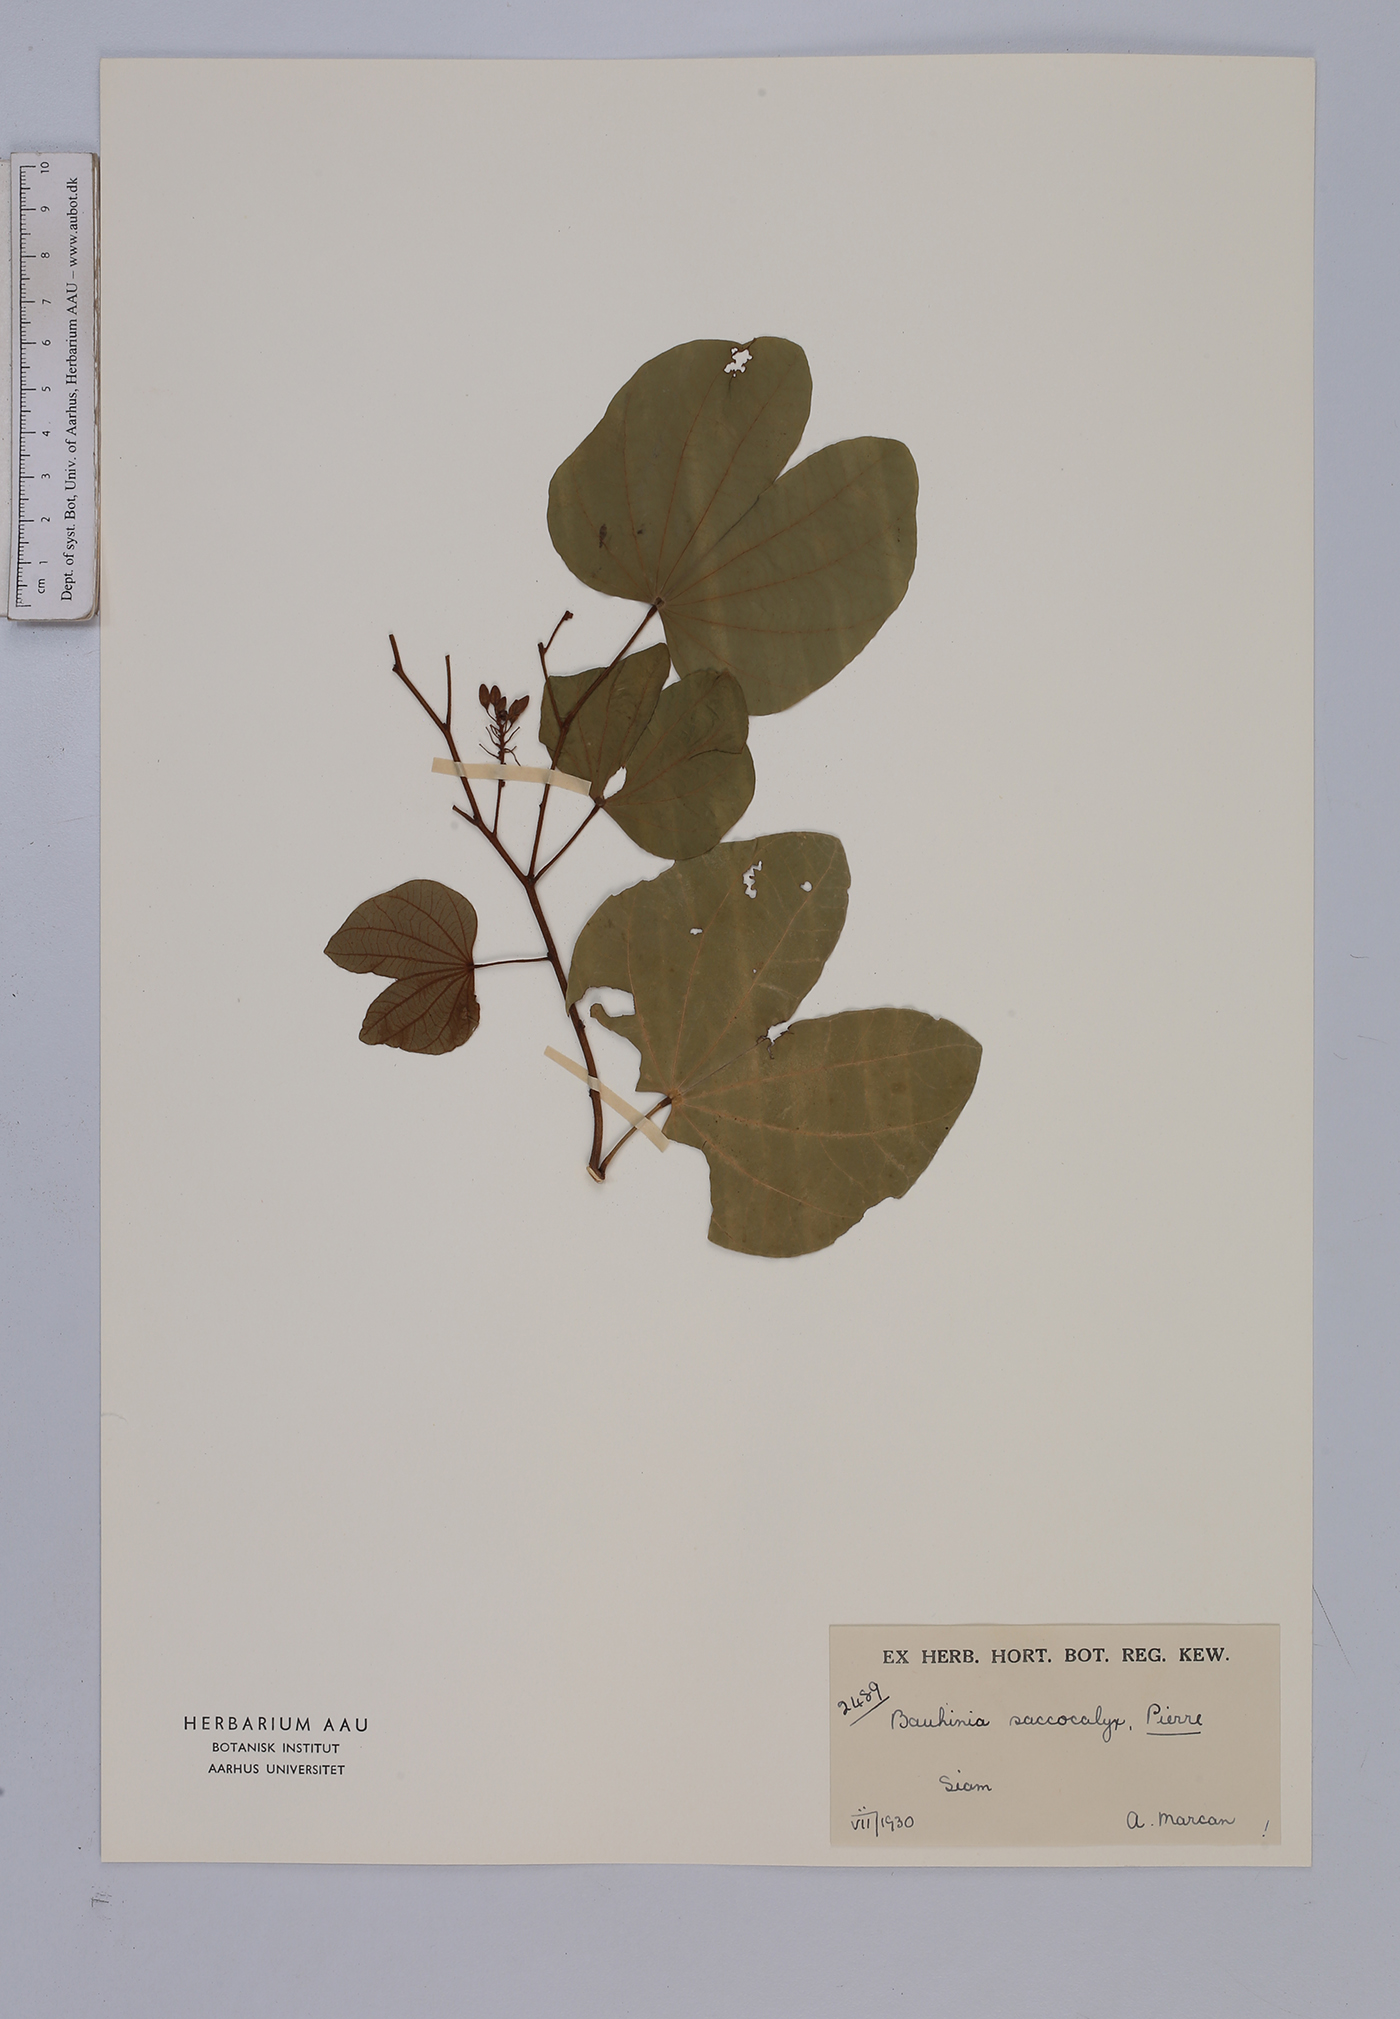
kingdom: Plantae
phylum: Tracheophyta
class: Magnoliopsida
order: Fabales
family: Fabaceae
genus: Bauhinia
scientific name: Bauhinia saccocalyx
